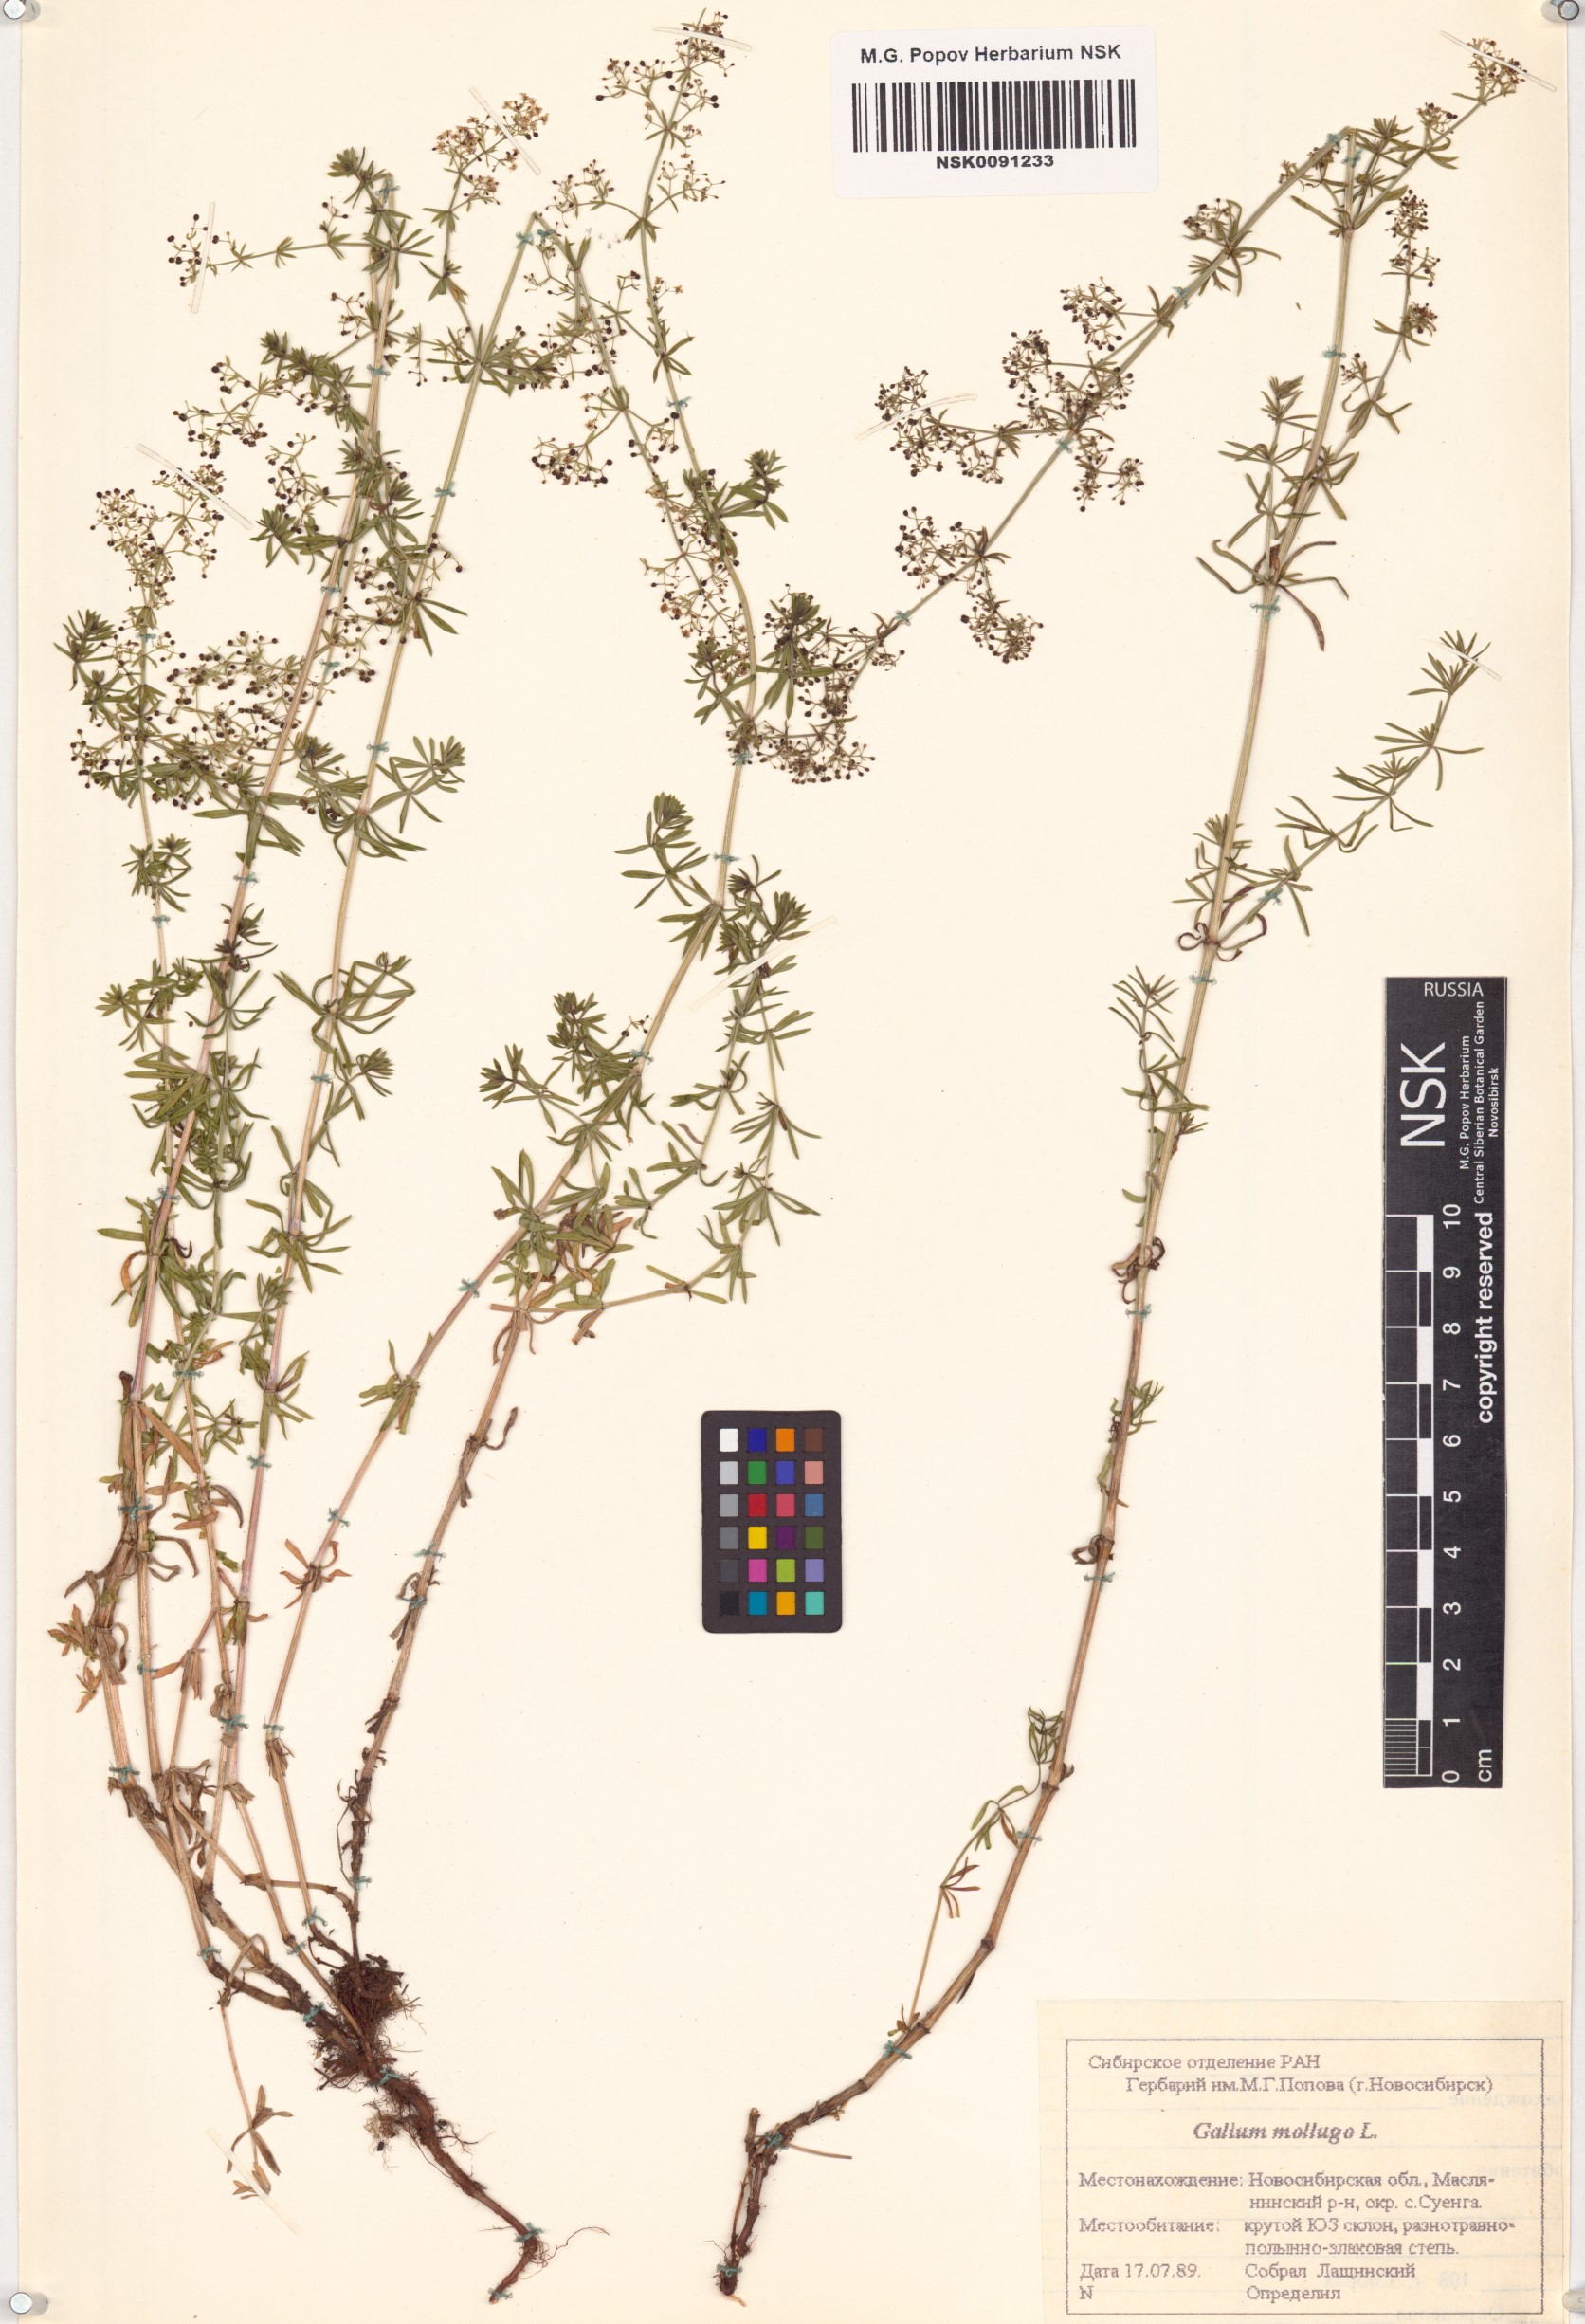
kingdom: Plantae
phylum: Tracheophyta
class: Magnoliopsida
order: Gentianales
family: Rubiaceae
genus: Galium
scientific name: Galium mollugo
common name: Hedge bedstraw
